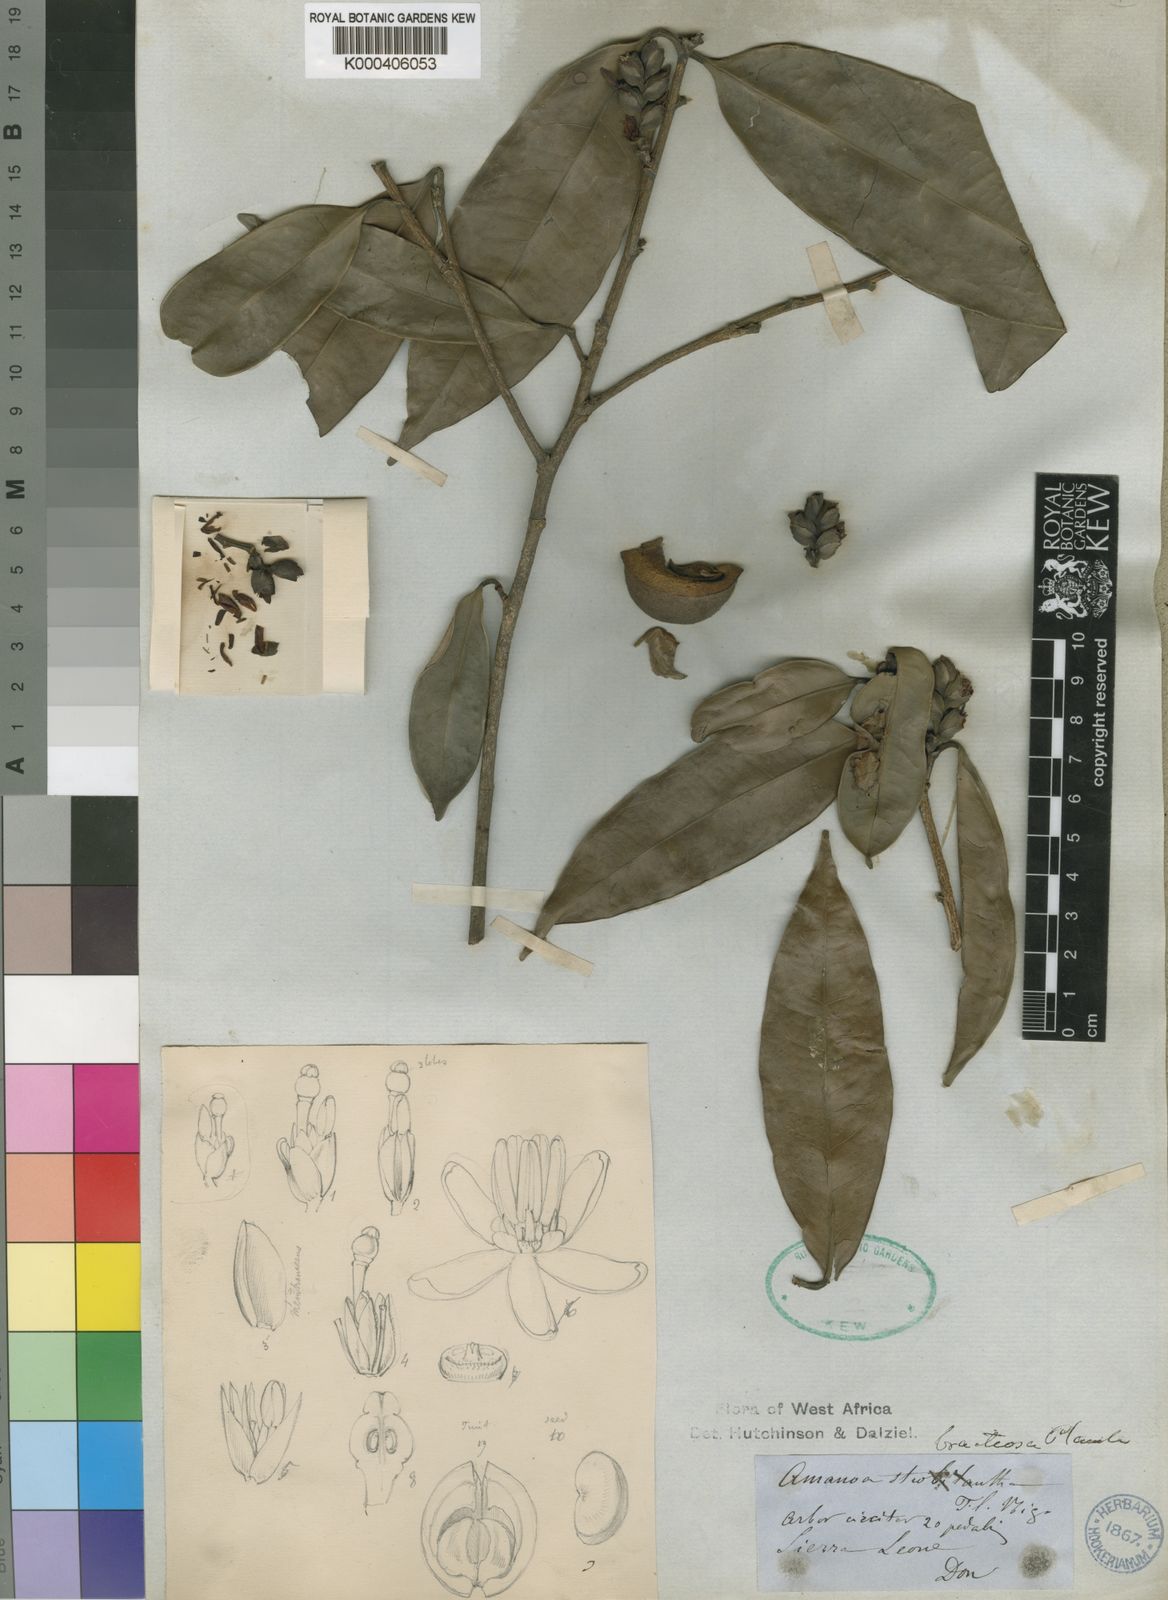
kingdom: Plantae
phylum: Tracheophyta
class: Magnoliopsida
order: Malpighiales
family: Phyllanthaceae
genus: Amanoa
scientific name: Amanoa bracteosa
